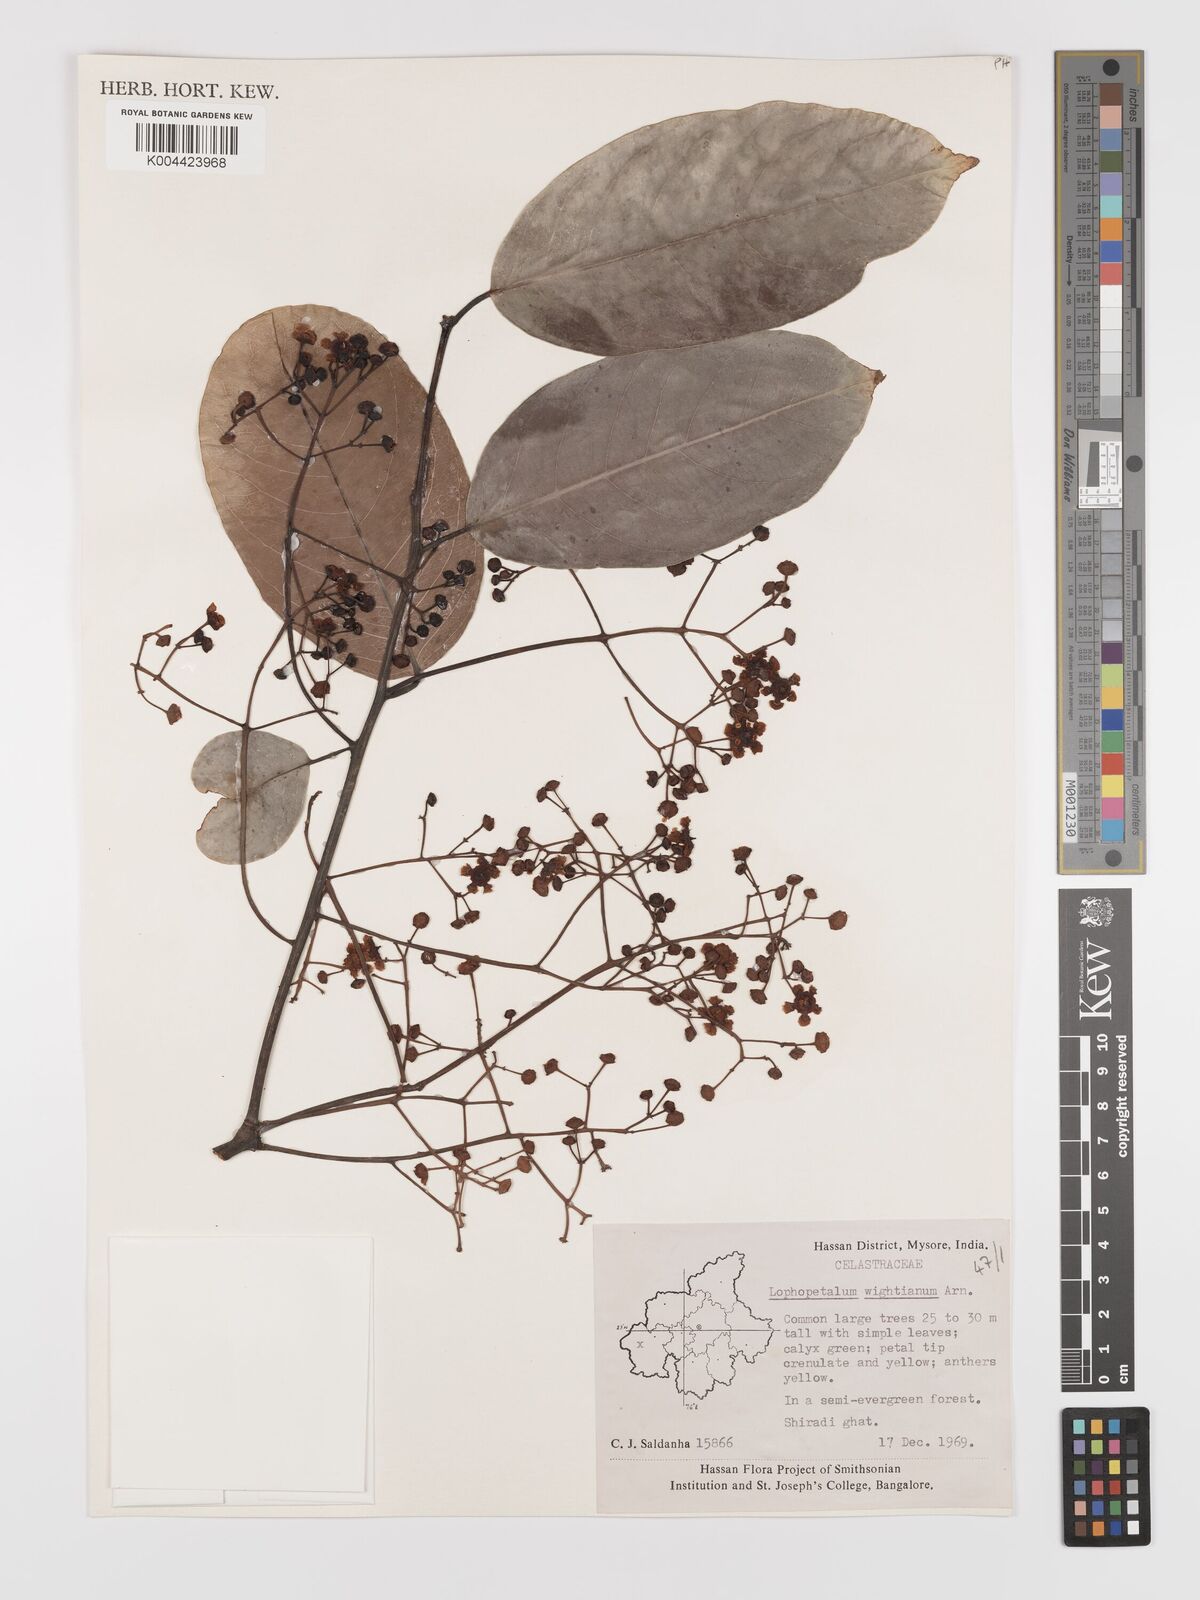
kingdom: Plantae
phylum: Tracheophyta
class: Magnoliopsida
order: Celastrales
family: Celastraceae
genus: Lophopetalum
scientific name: Lophopetalum wightianum
